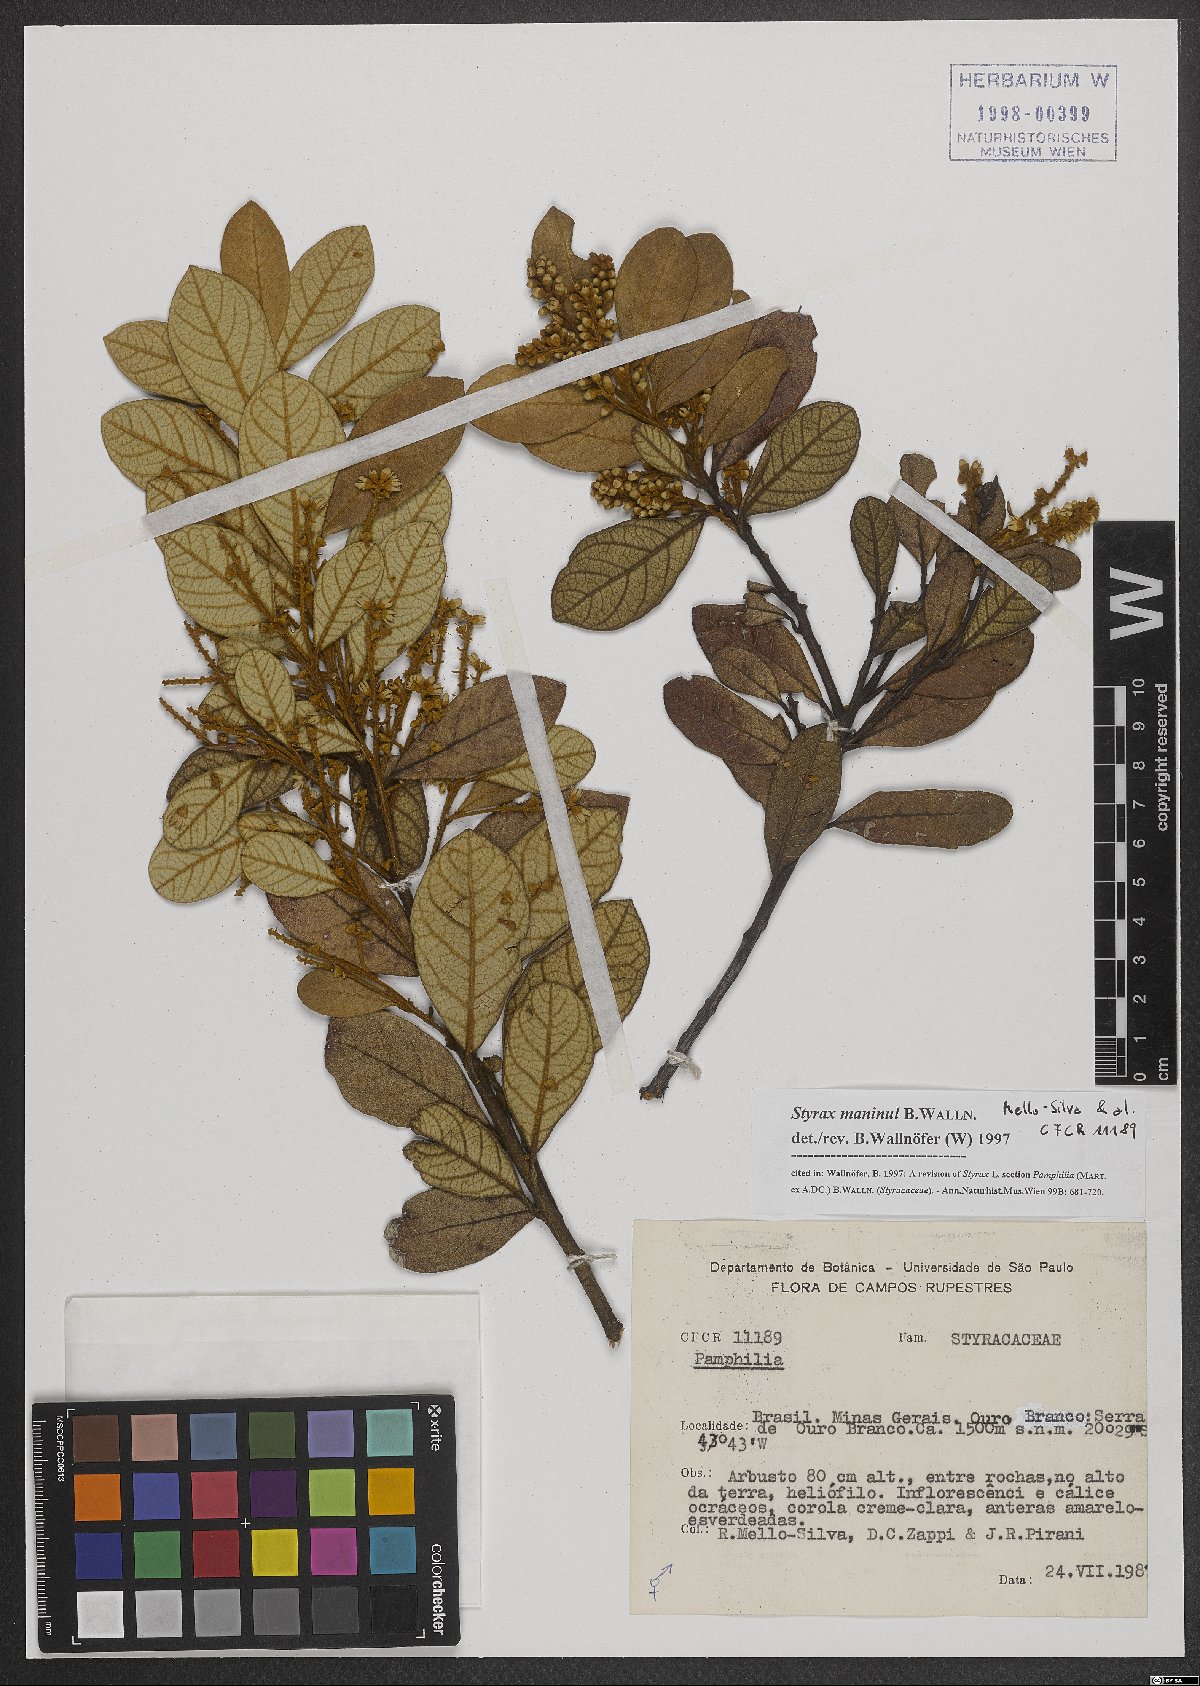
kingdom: Plantae
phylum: Tracheophyta
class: Magnoliopsida
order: Ericales
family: Styracaceae
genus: Styrax
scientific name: Styrax maninul
